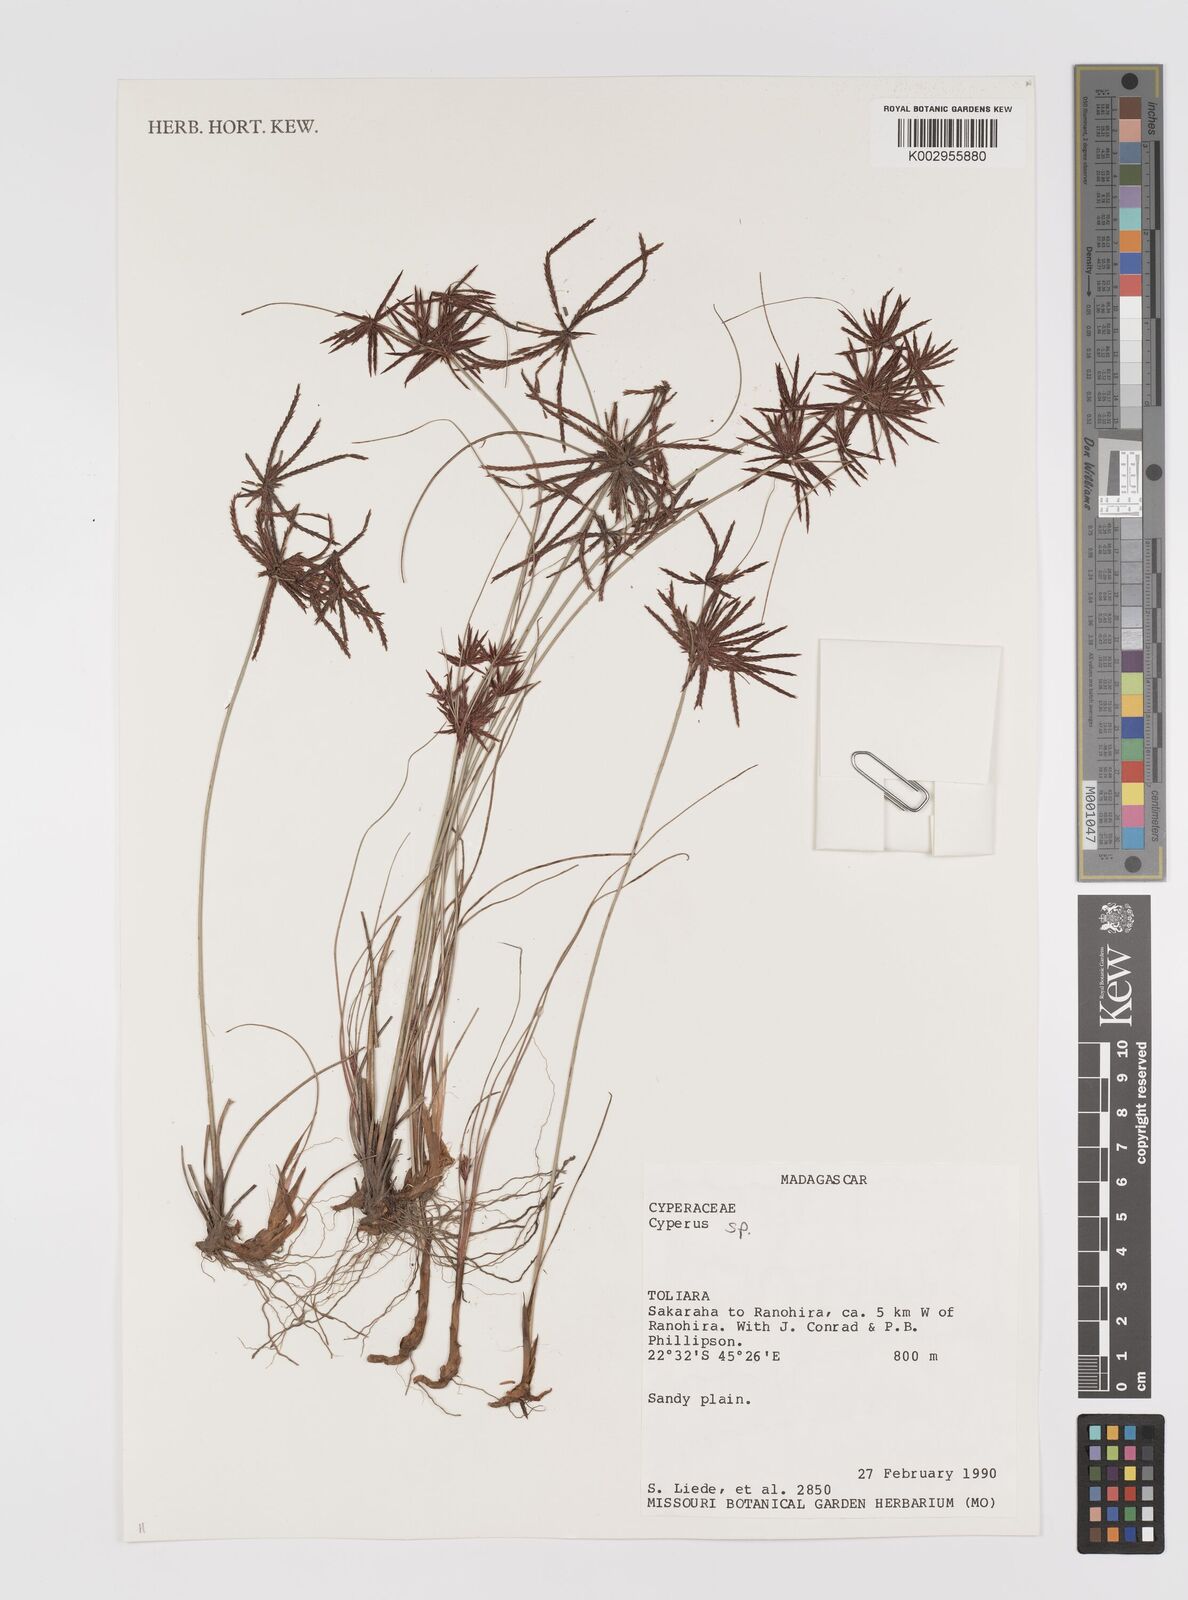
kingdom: Plantae
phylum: Tracheophyta
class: Liliopsida
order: Poales
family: Cyperaceae
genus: Cyperus
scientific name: Cyperus
